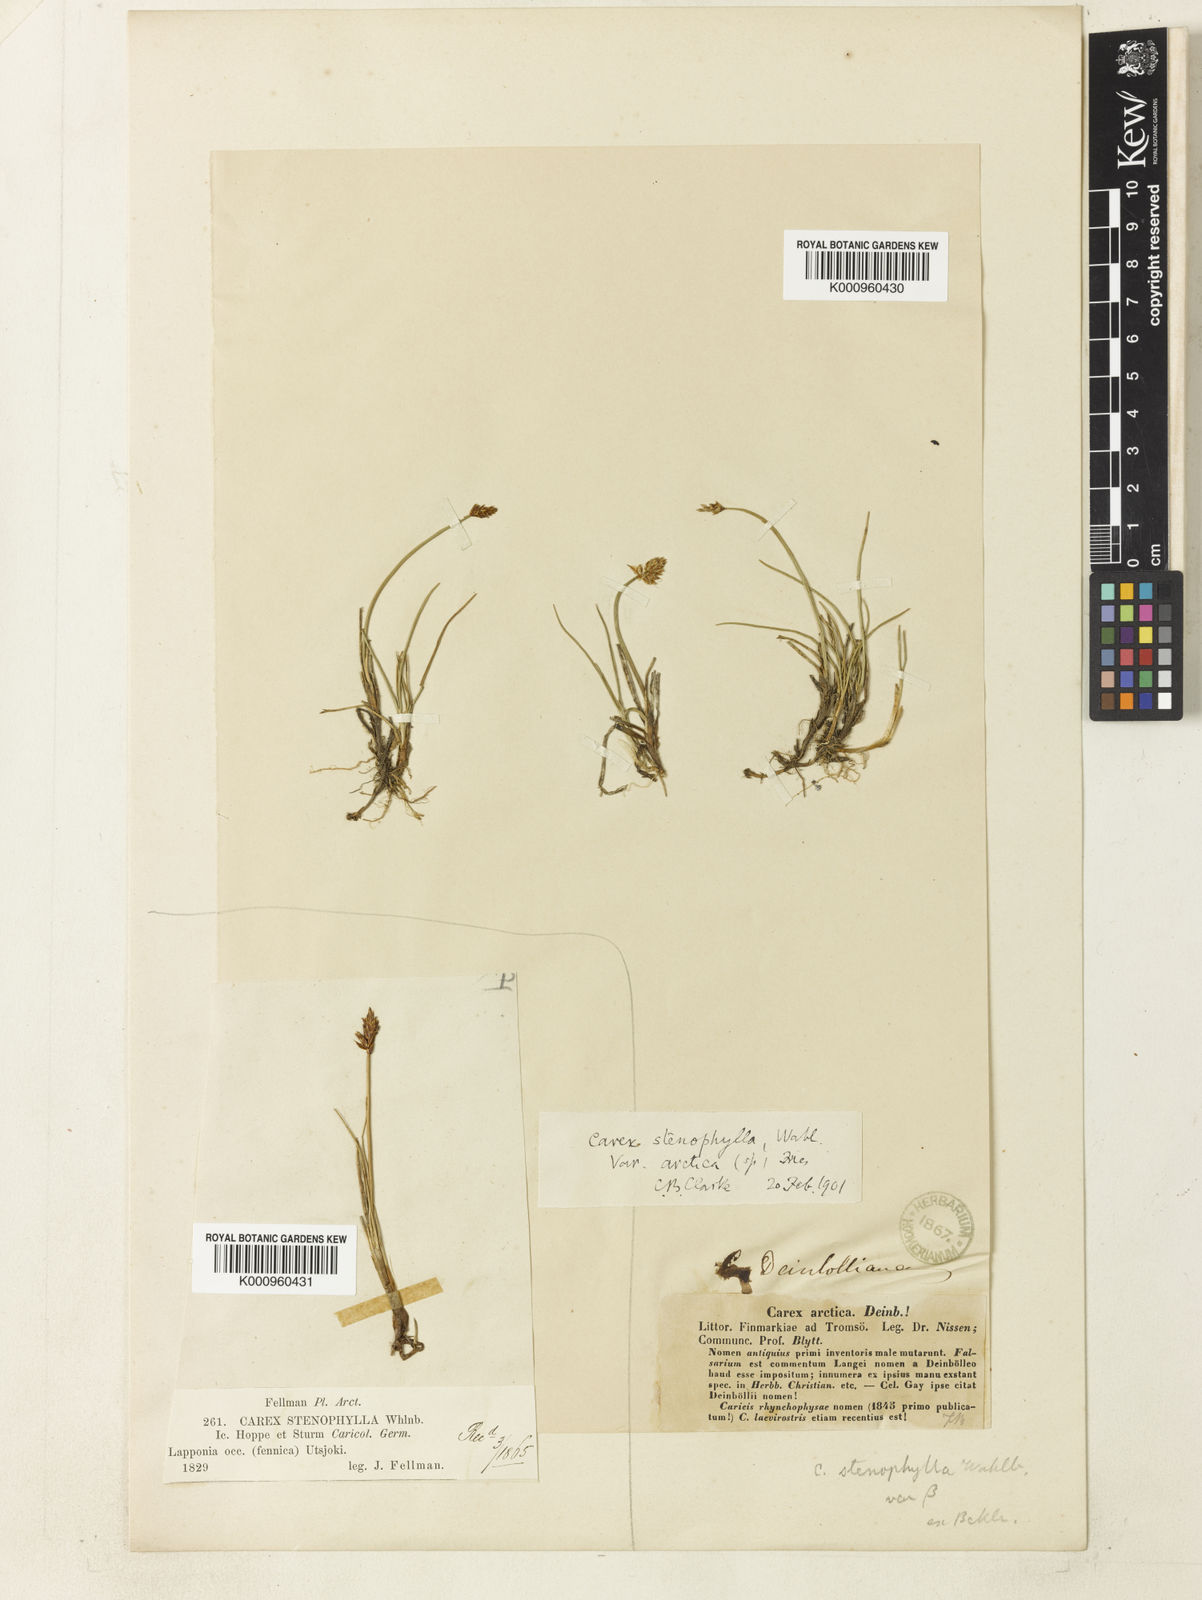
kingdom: Plantae
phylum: Tracheophyta
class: Liliopsida
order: Poales
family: Cyperaceae
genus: Carex
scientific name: Carex dioica
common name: Dioecious sedge
